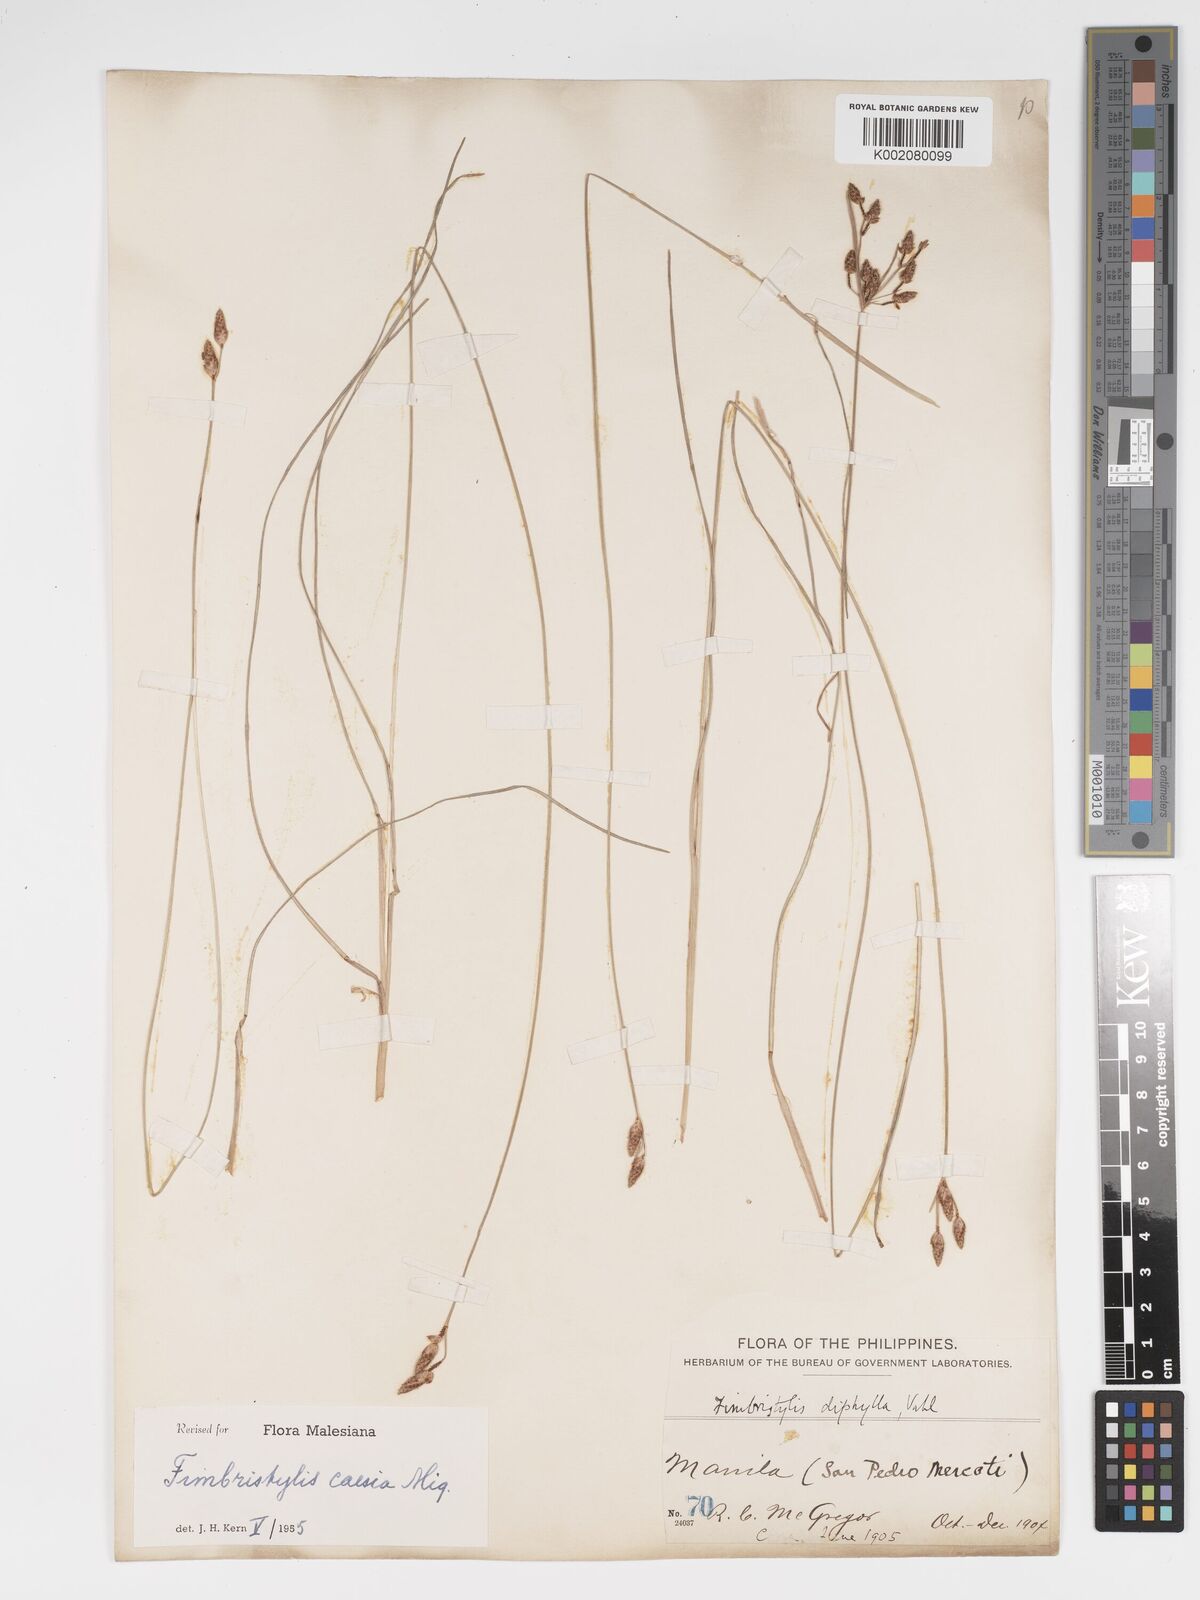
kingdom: Plantae
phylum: Tracheophyta
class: Liliopsida
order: Poales
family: Cyperaceae
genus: Fimbristylis
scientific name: Fimbristylis caesia
